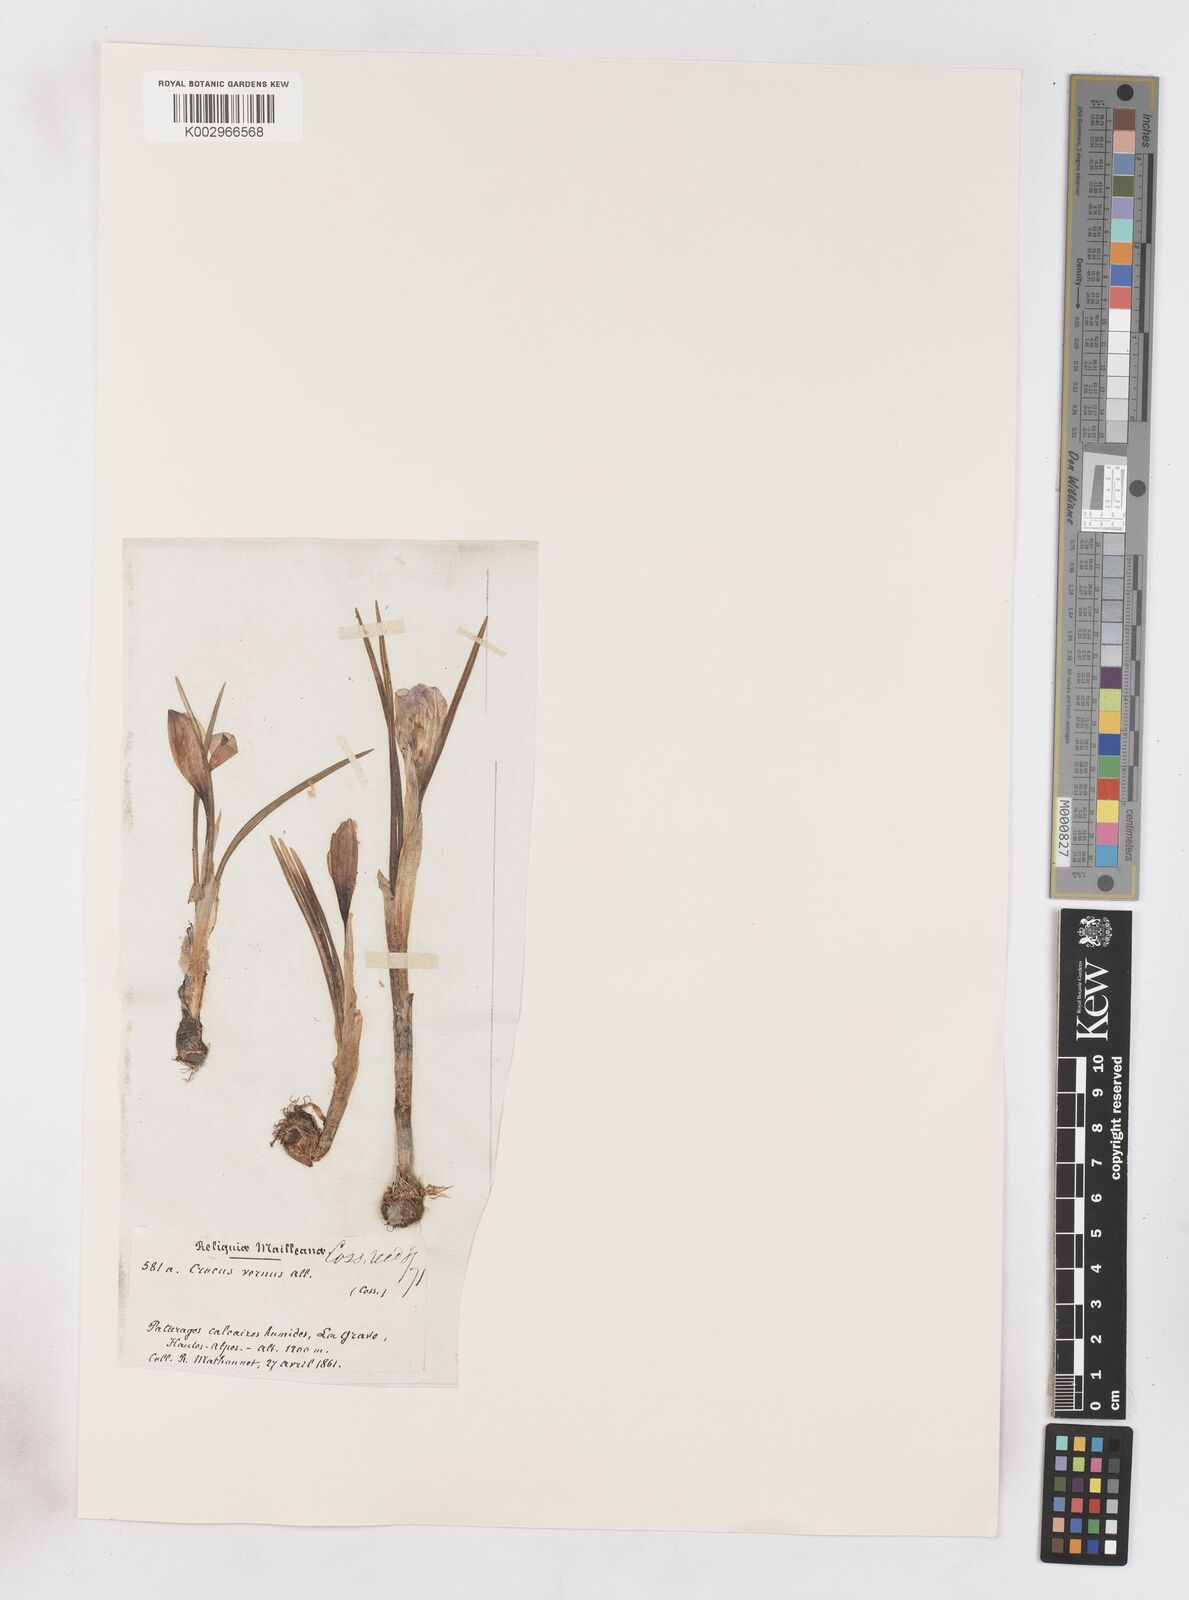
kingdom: Plantae
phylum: Tracheophyta
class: Liliopsida
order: Asparagales
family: Iridaceae
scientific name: Iridaceae
